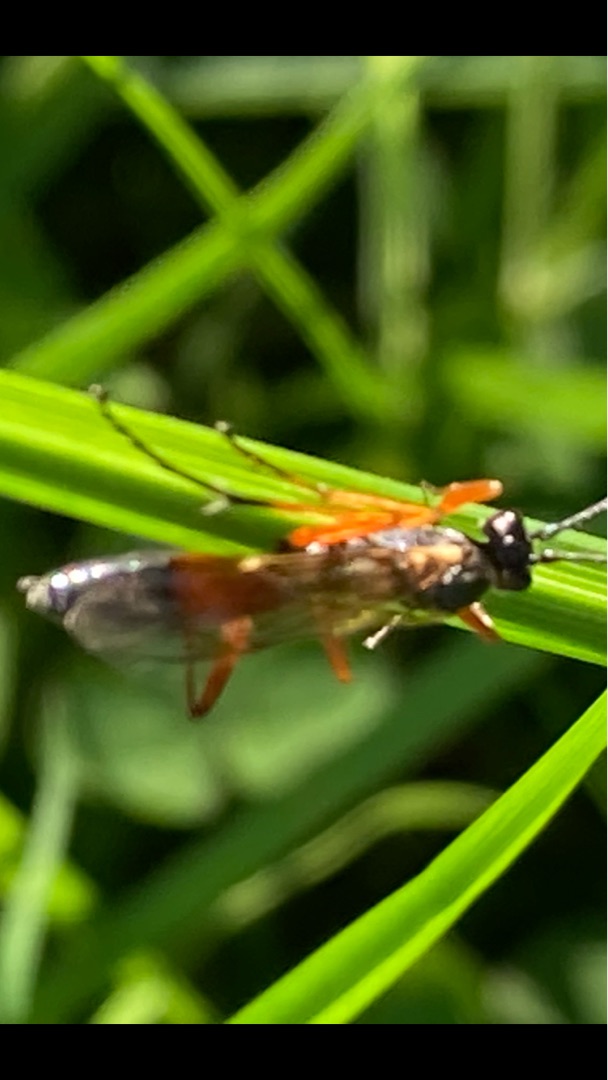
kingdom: Animalia
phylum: Arthropoda
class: Insecta
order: Hymenoptera
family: Ichneumonidae
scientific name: Ichneumonidae
